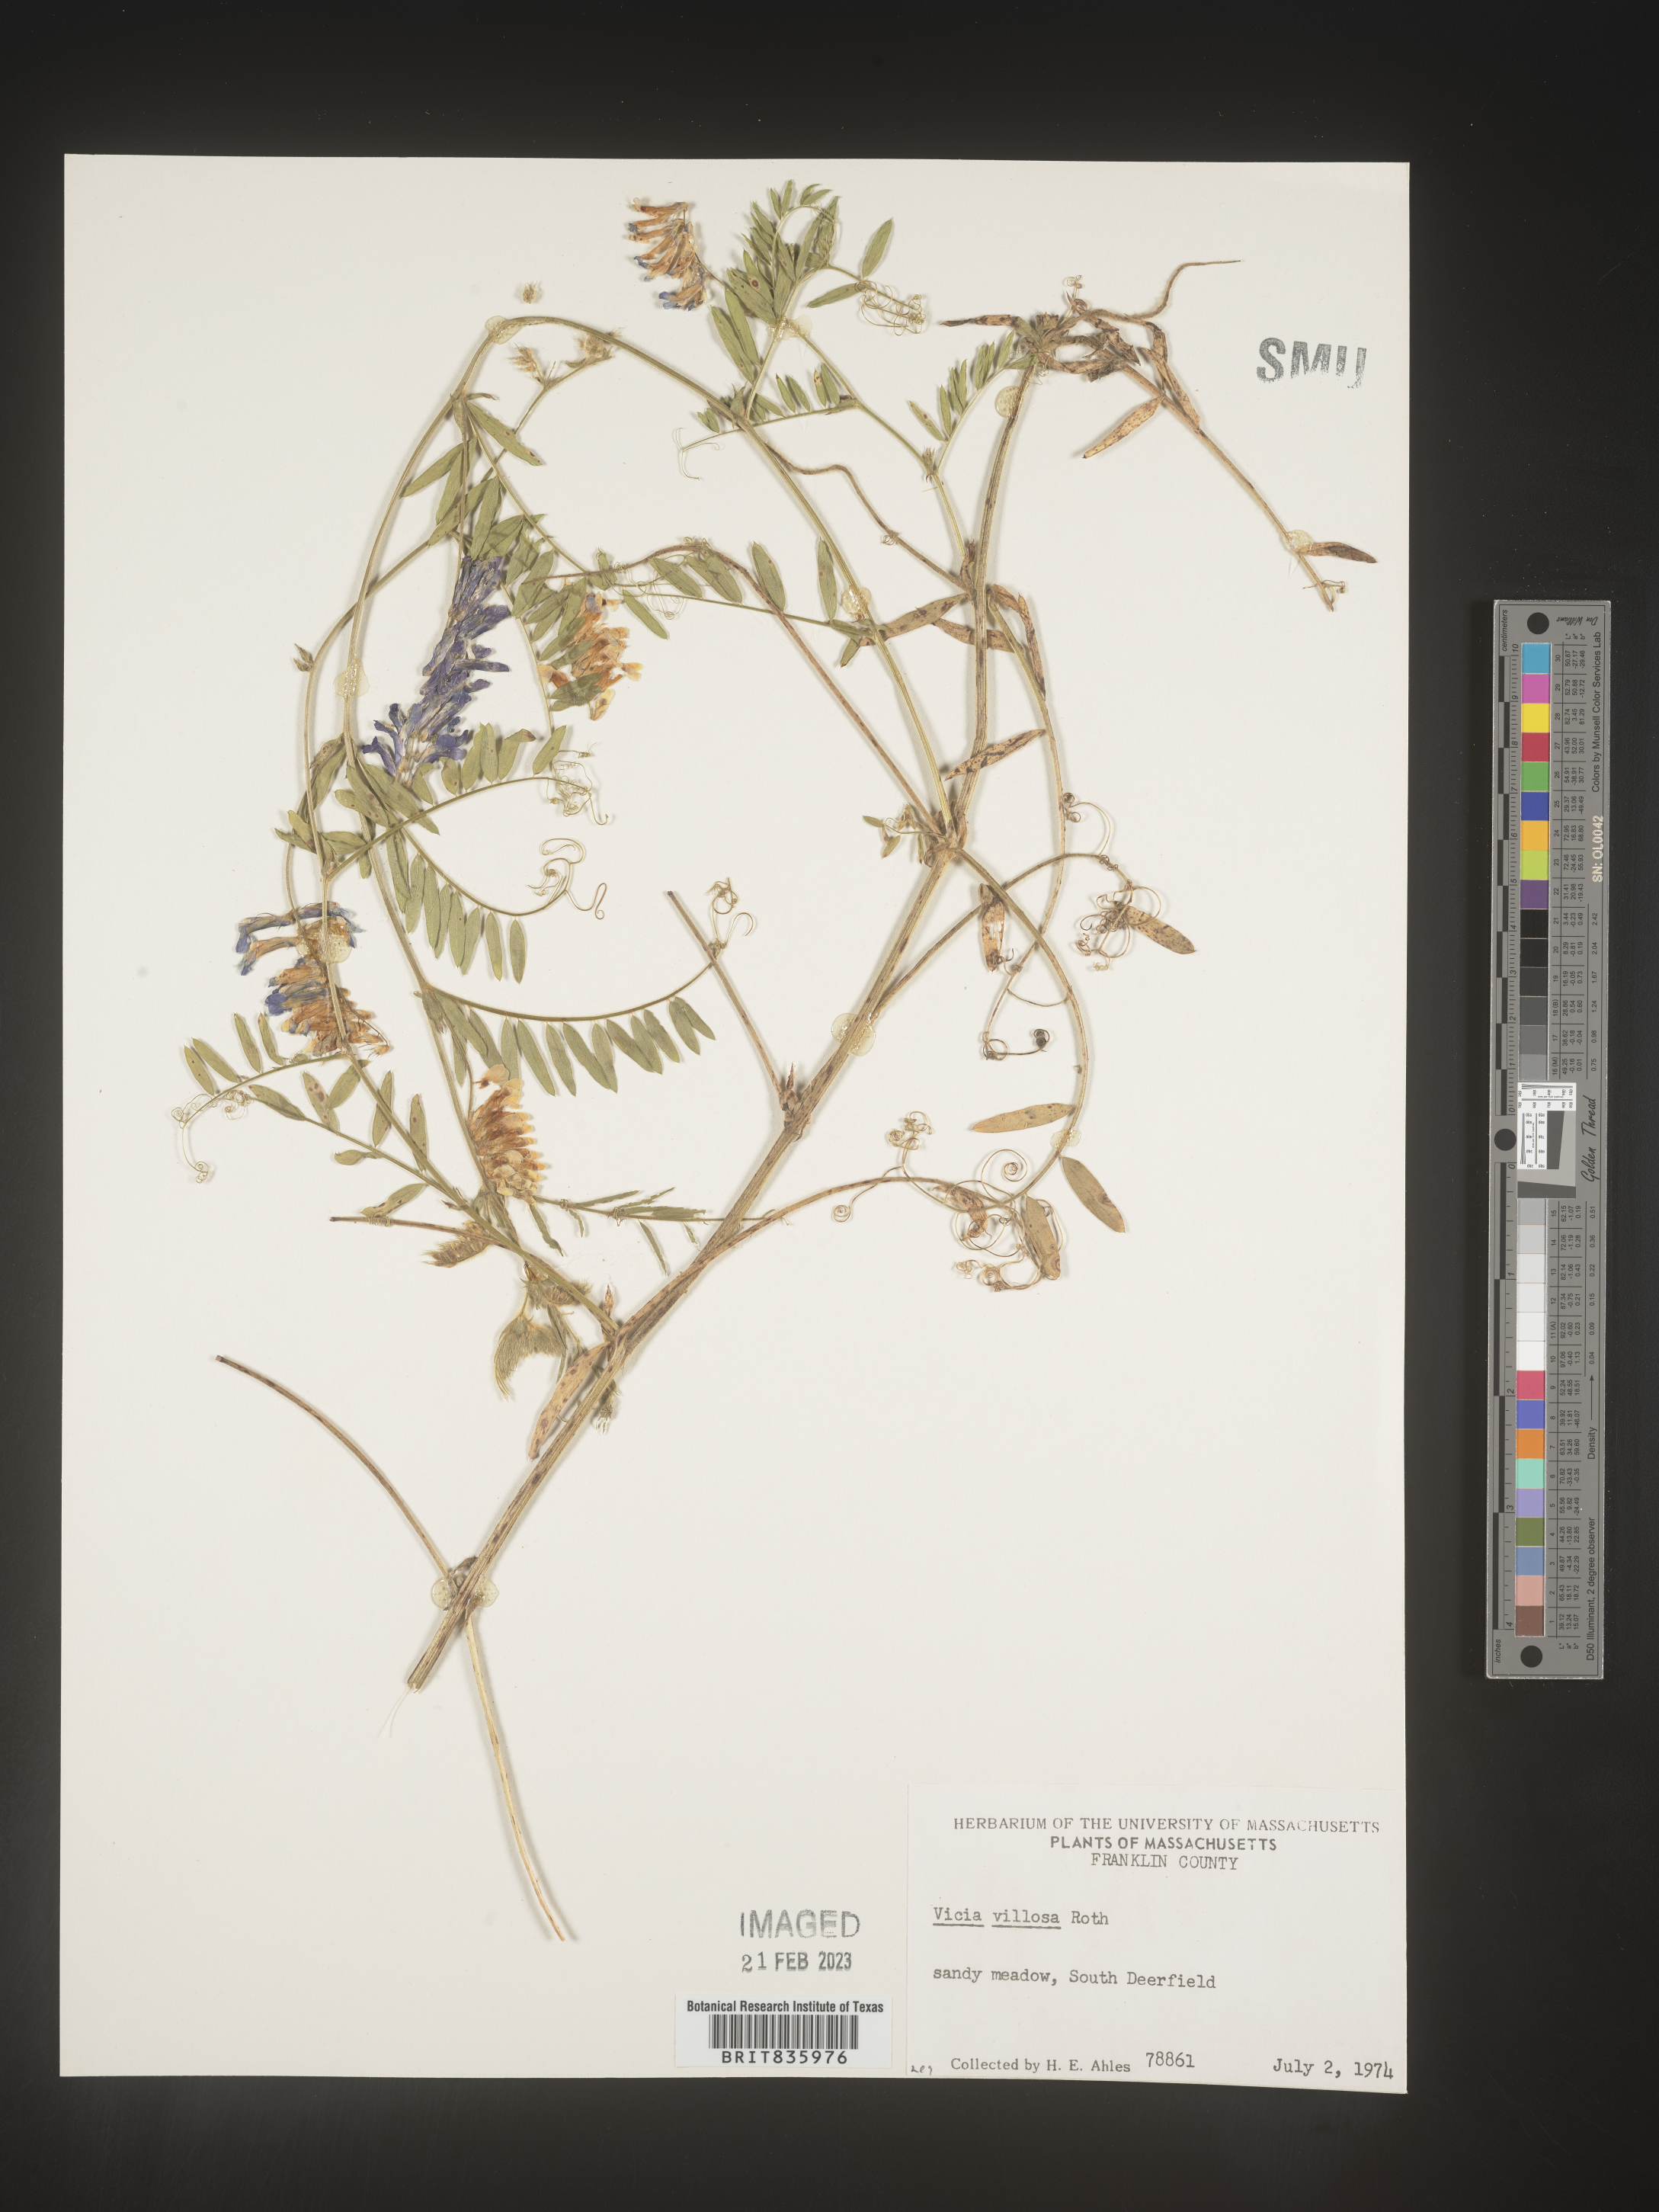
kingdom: Plantae
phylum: Tracheophyta
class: Magnoliopsida
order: Fabales
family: Fabaceae
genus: Vicia
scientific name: Vicia villosa
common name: Fodder vetch
